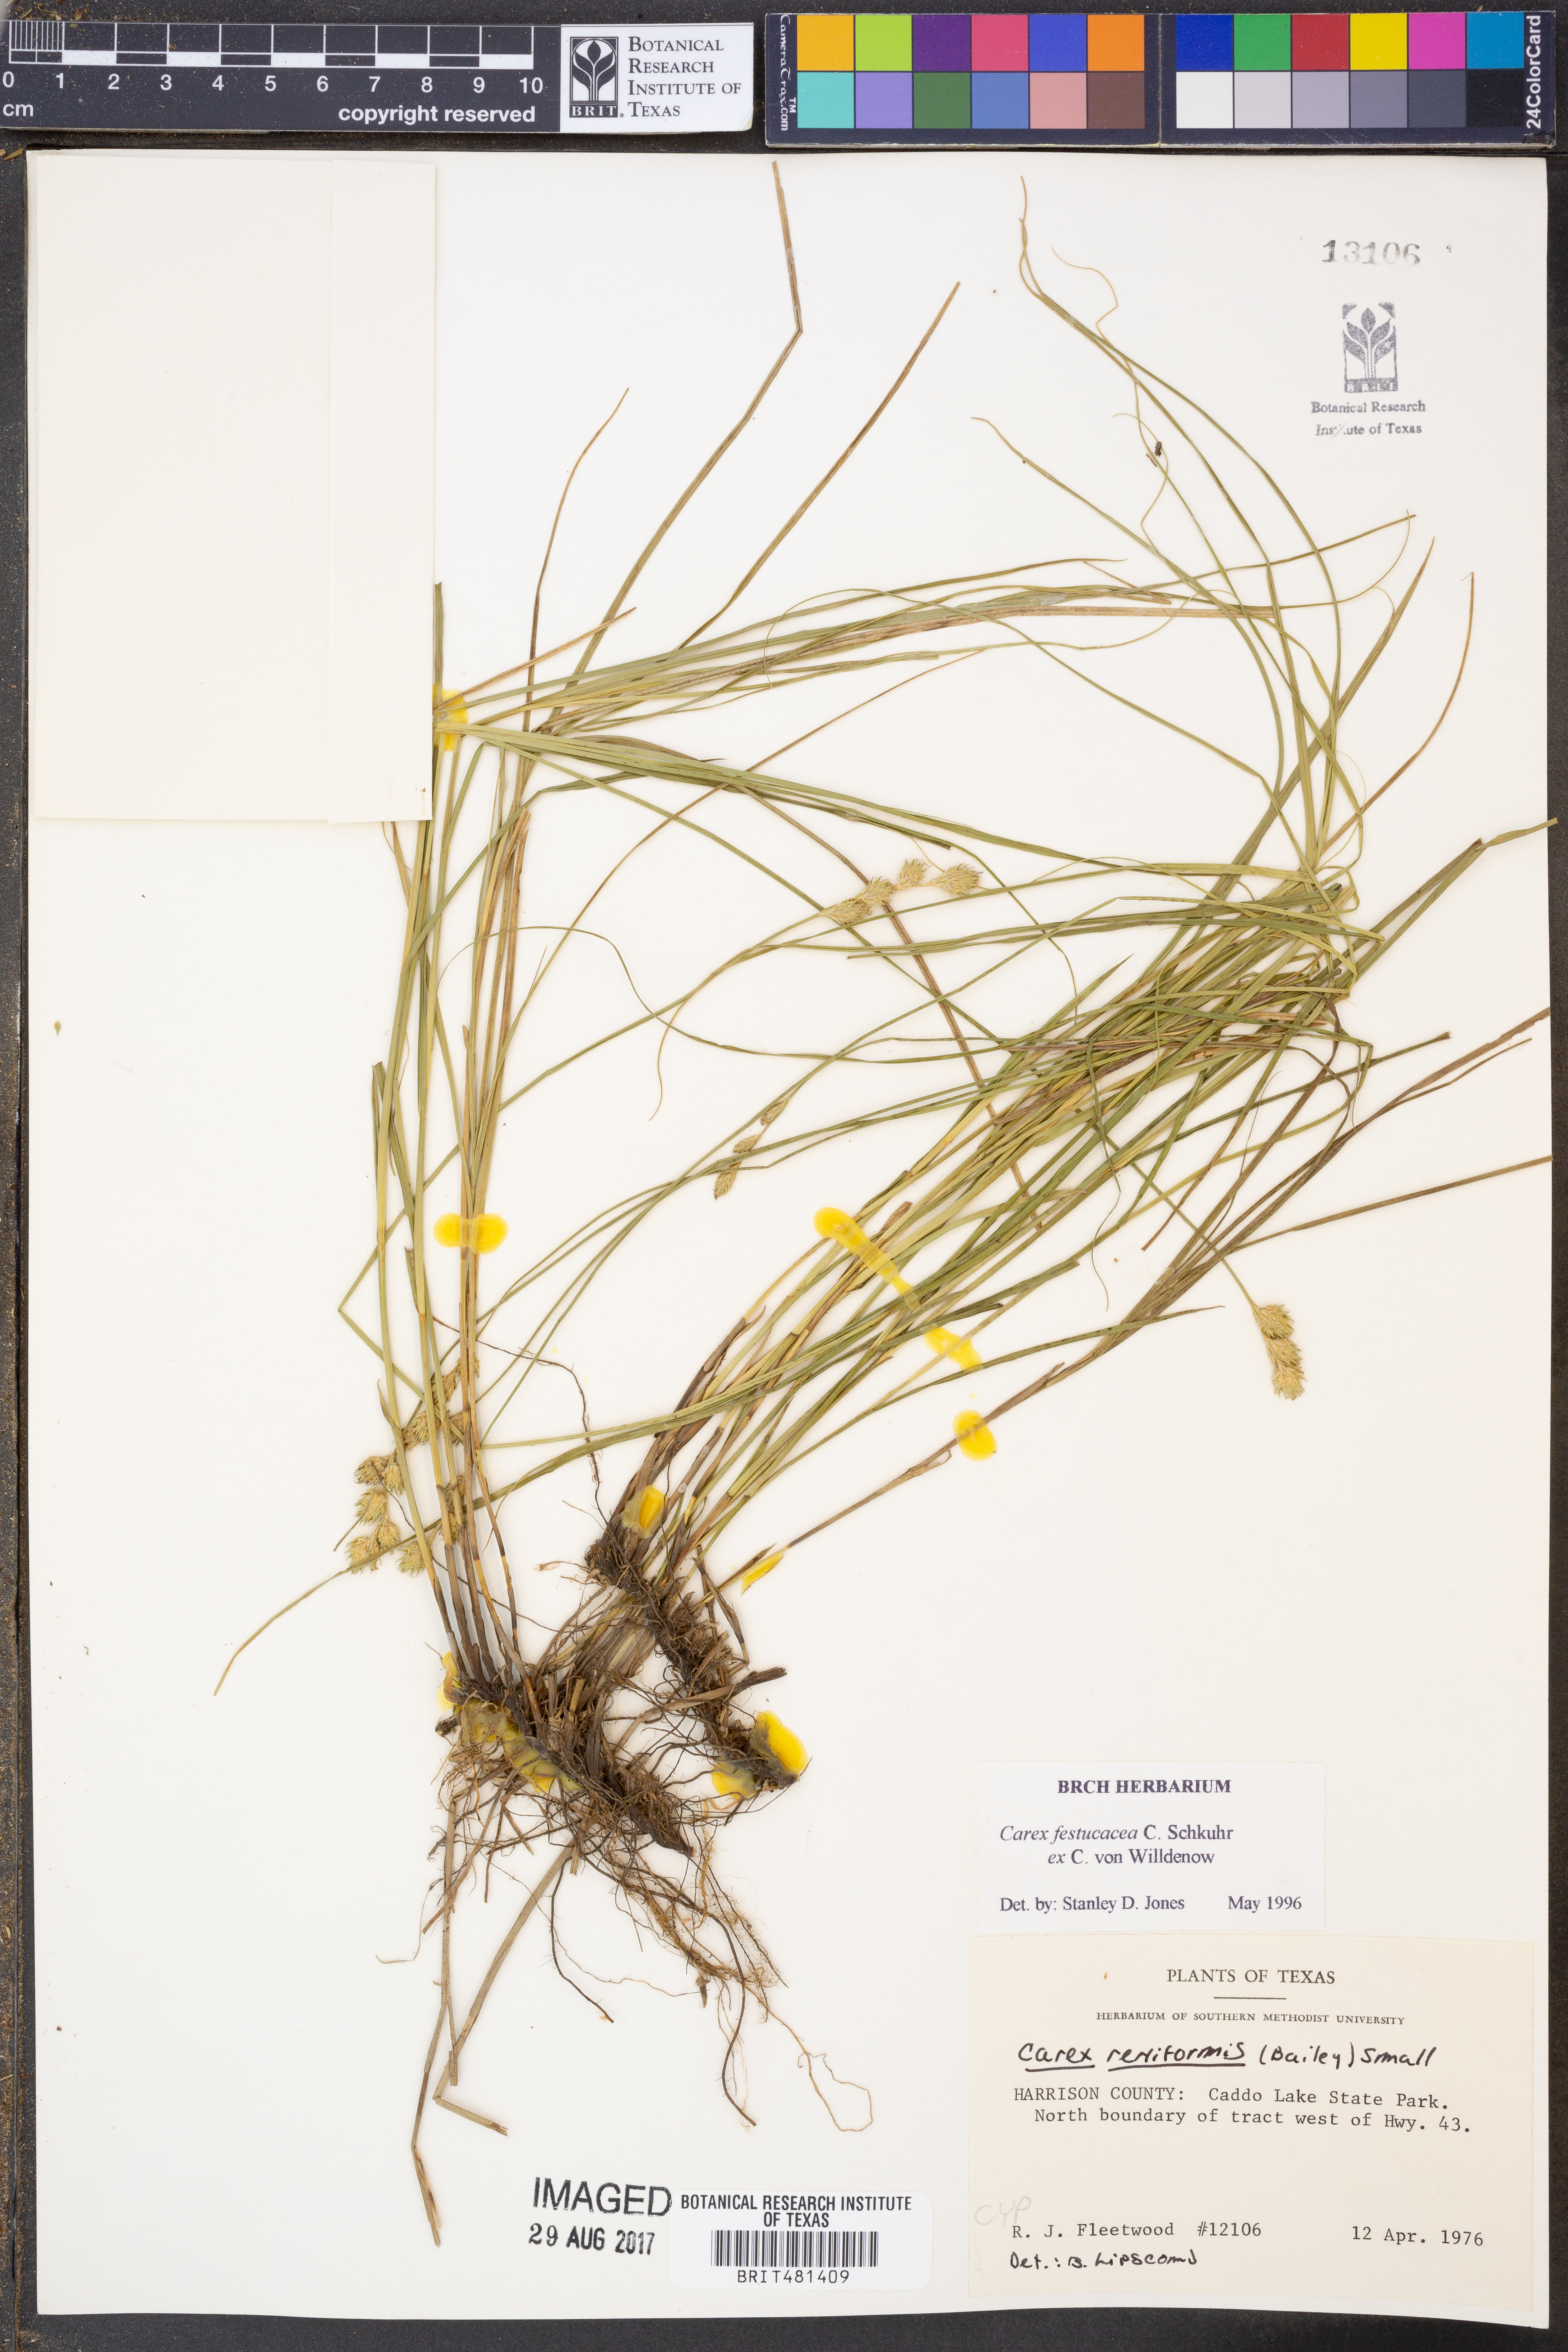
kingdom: Plantae
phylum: Tracheophyta
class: Liliopsida
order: Poales
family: Cyperaceae
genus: Carex
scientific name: Carex festucacea
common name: Fescue oval sedge
